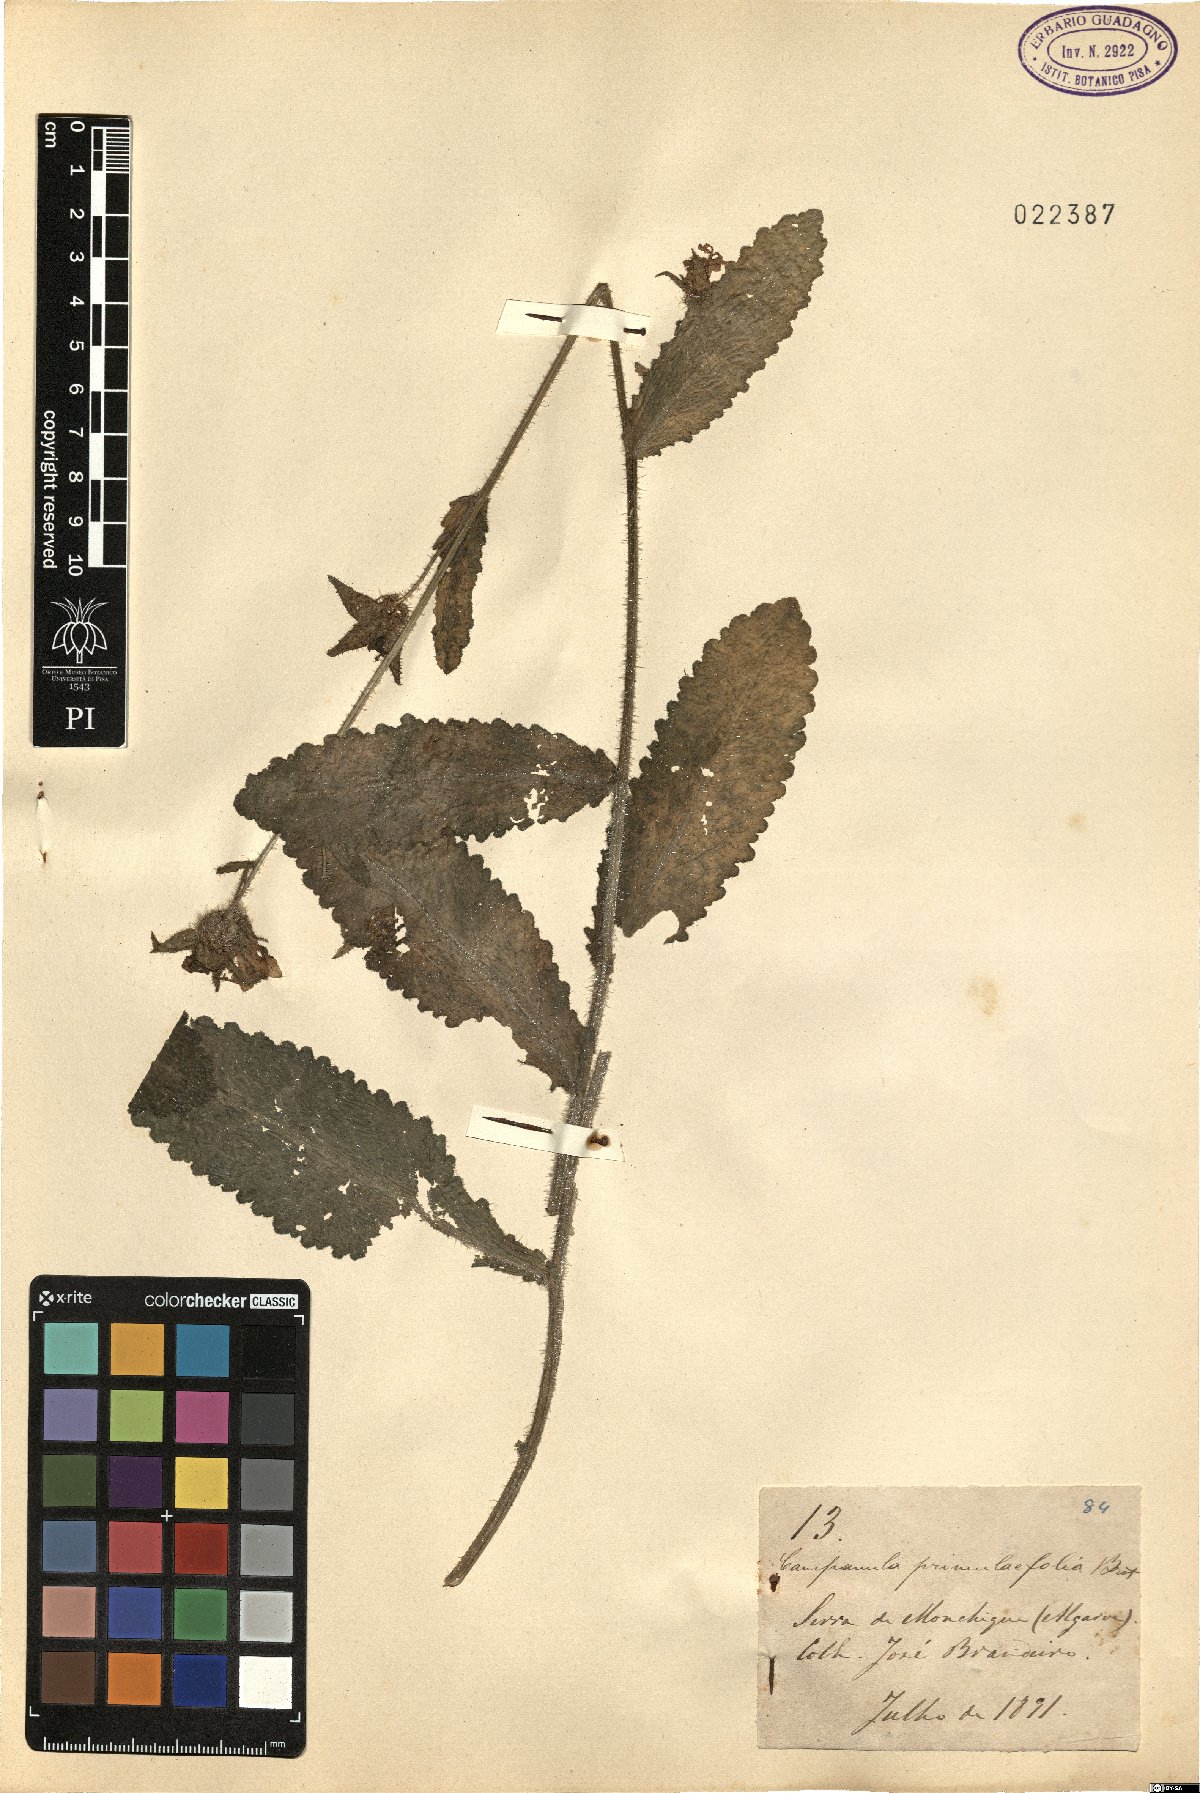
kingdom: Plantae
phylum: Tracheophyta
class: Magnoliopsida
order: Asterales
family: Campanulaceae
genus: Campanula
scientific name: Campanula primulifolia
